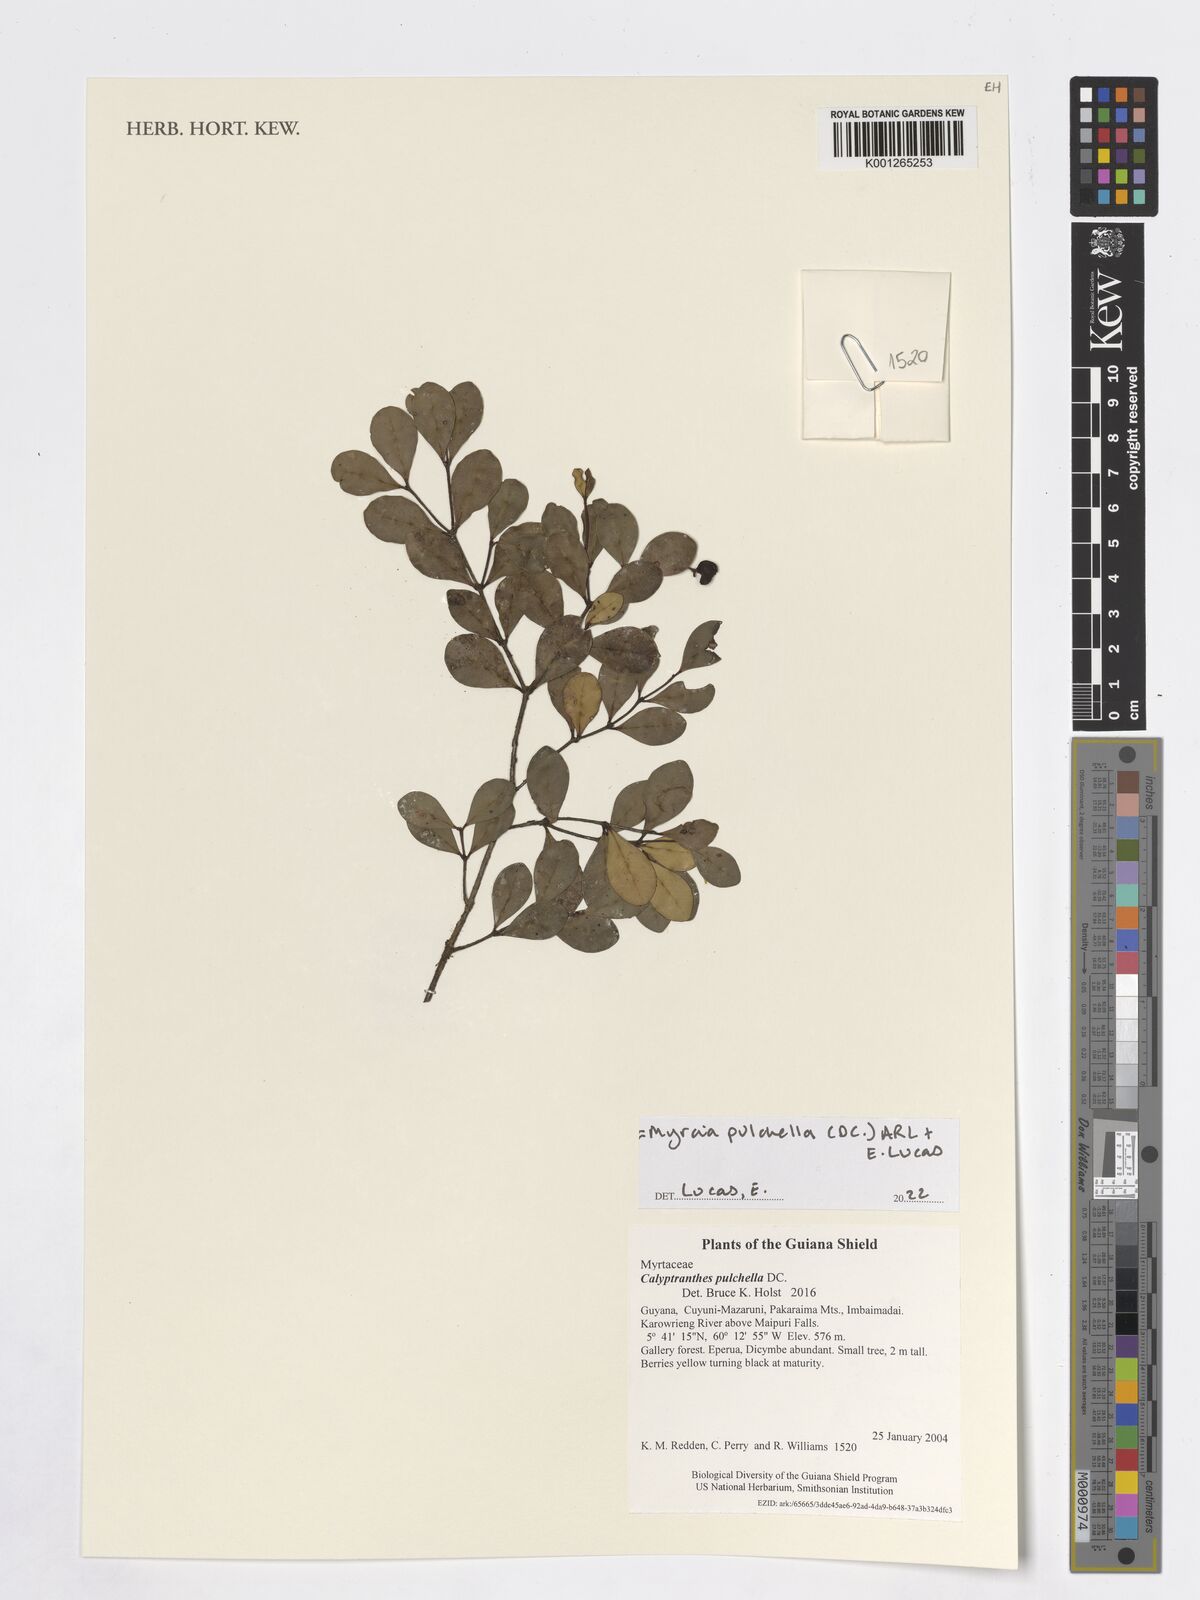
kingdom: Plantae
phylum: Tracheophyta
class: Magnoliopsida
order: Myrtales
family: Myrtaceae
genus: Myrcia
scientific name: Myrcia pulchella
